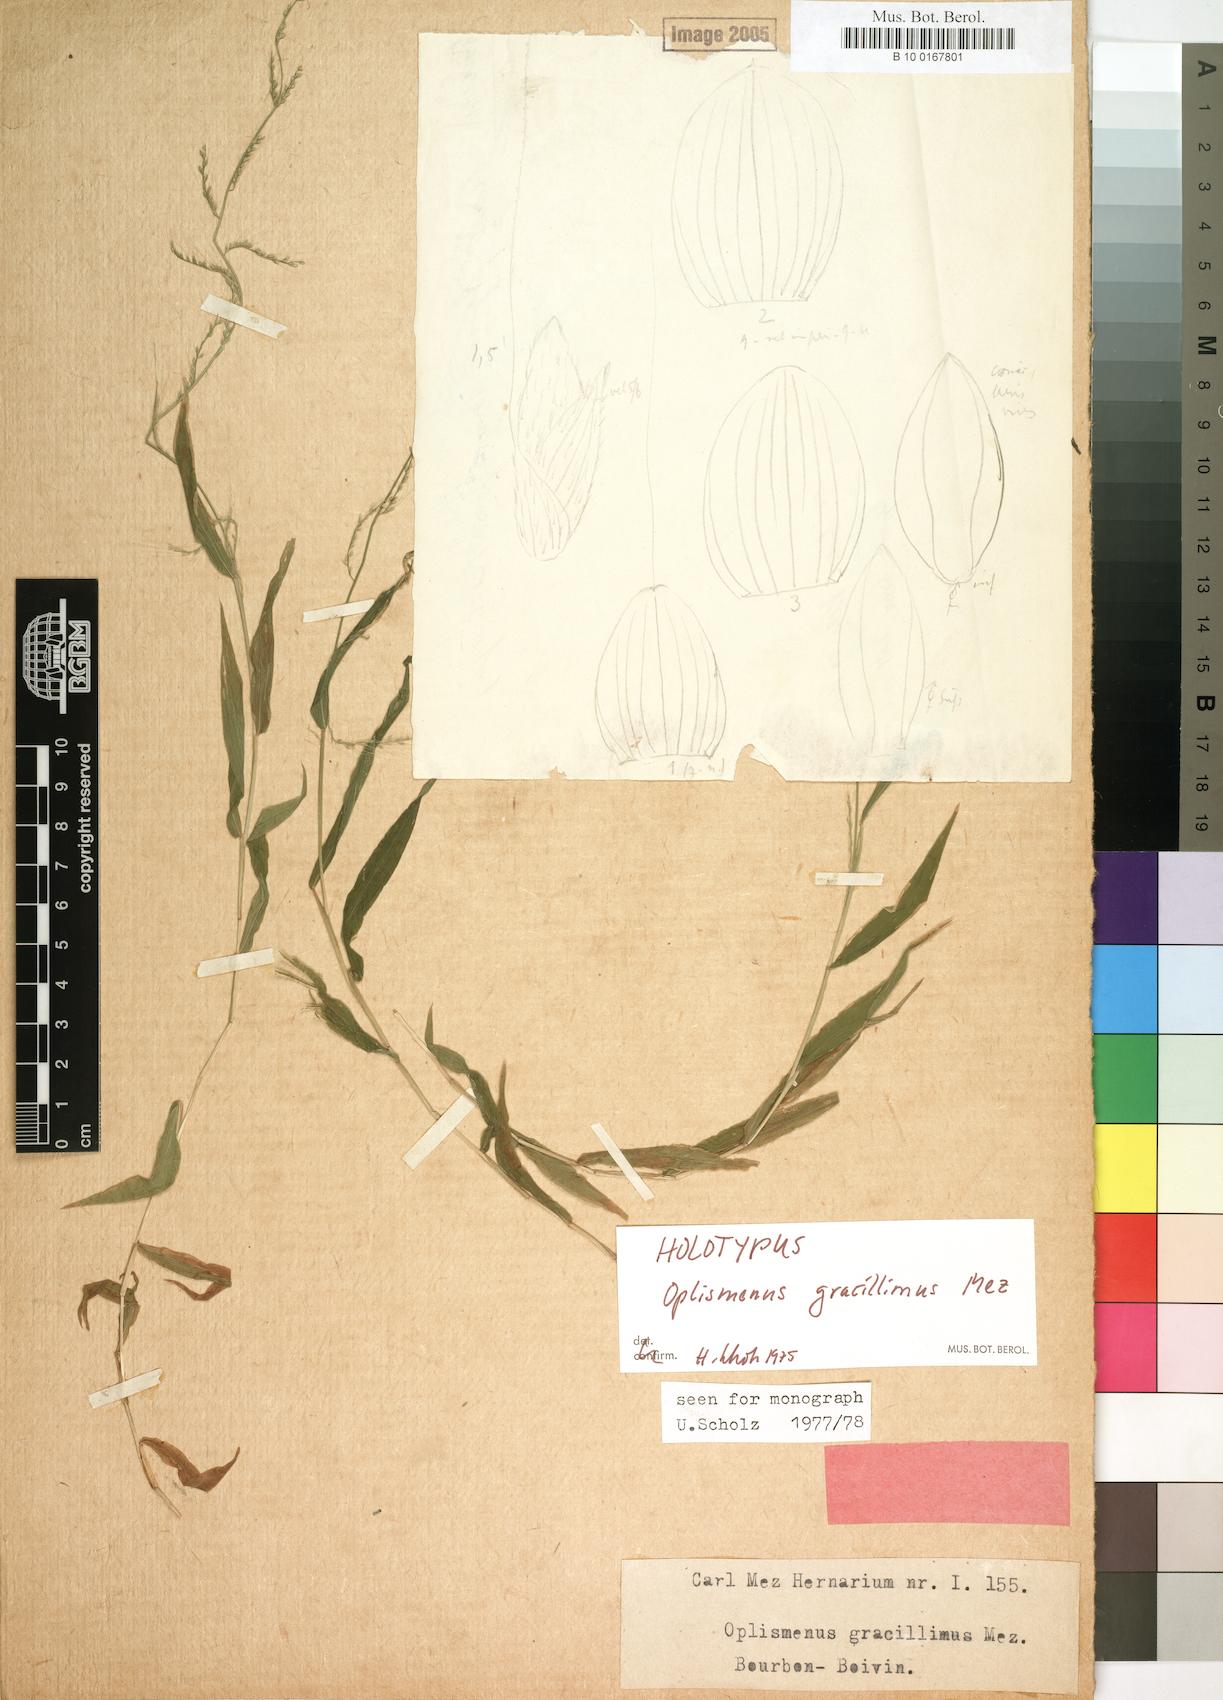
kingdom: Plantae
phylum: Tracheophyta
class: Liliopsida
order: Poales
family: Poaceae
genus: Oplismenus
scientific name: Oplismenus burmanni
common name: Burmann's basketgrass
